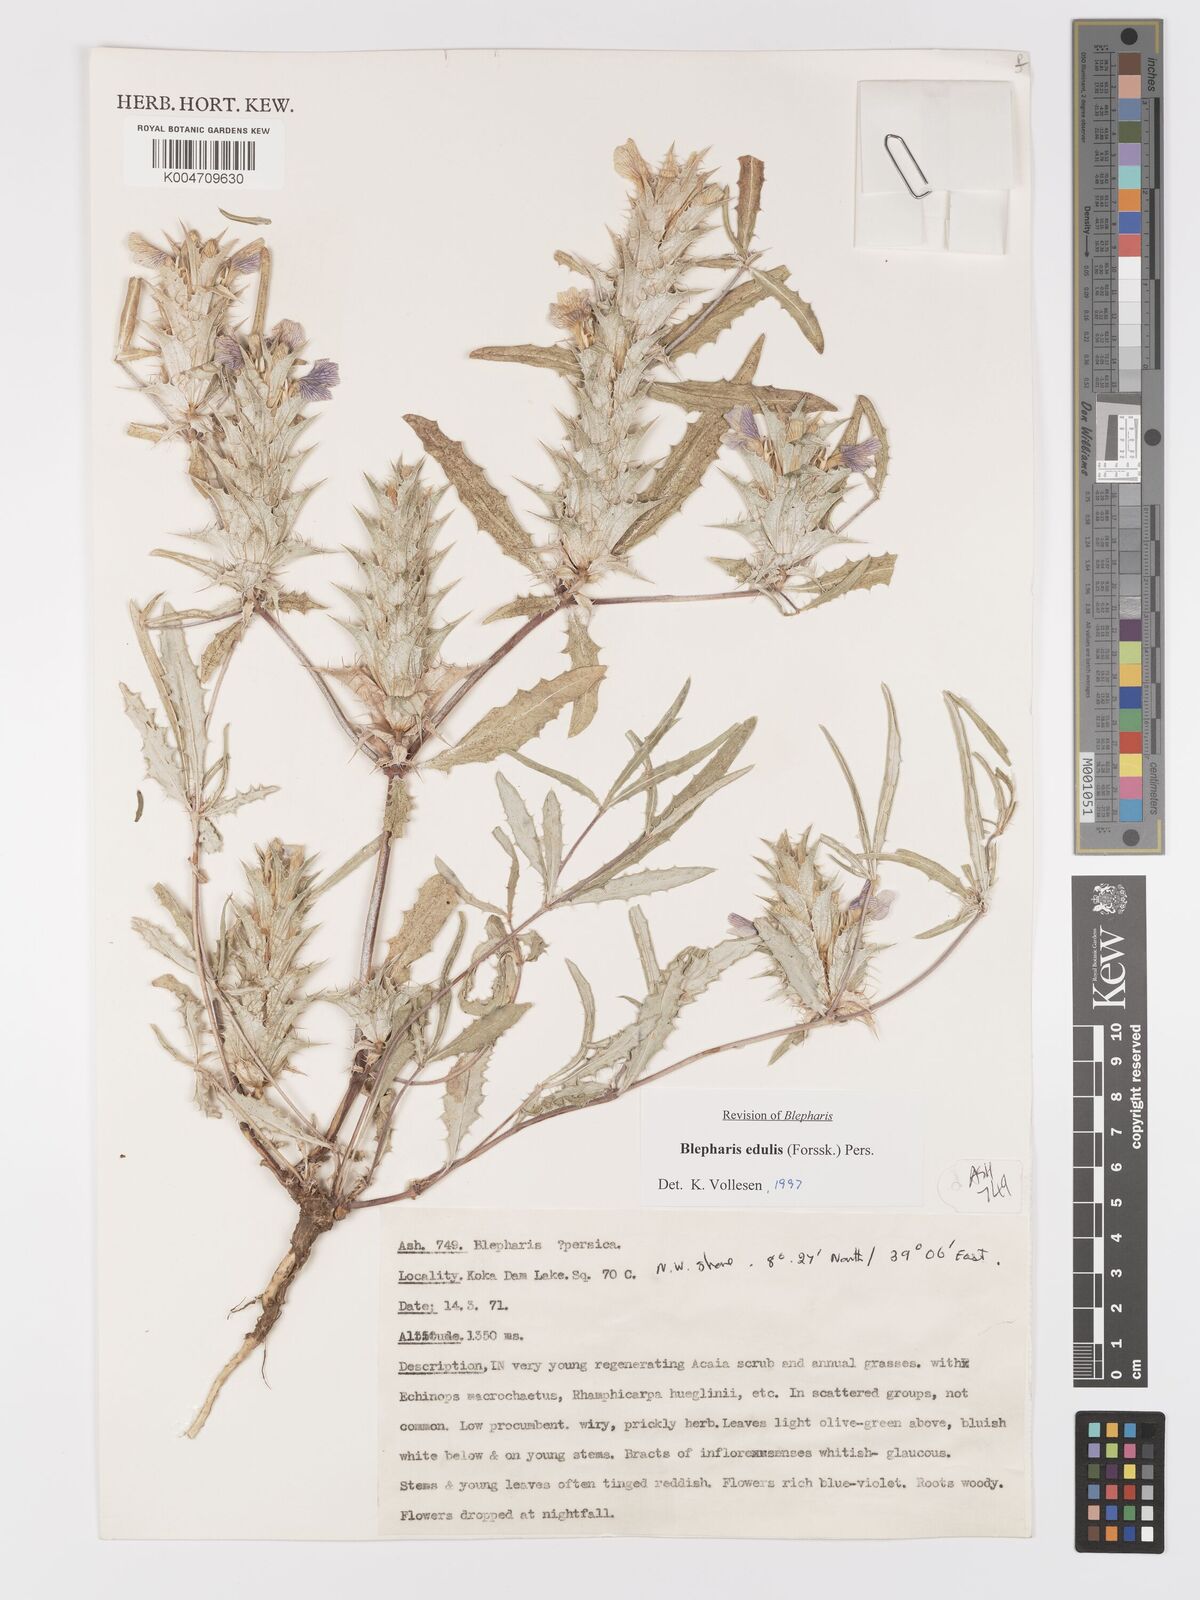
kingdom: Plantae
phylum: Tracheophyta
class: Magnoliopsida
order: Lamiales
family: Acanthaceae
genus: Blepharis
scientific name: Blepharis edulis
